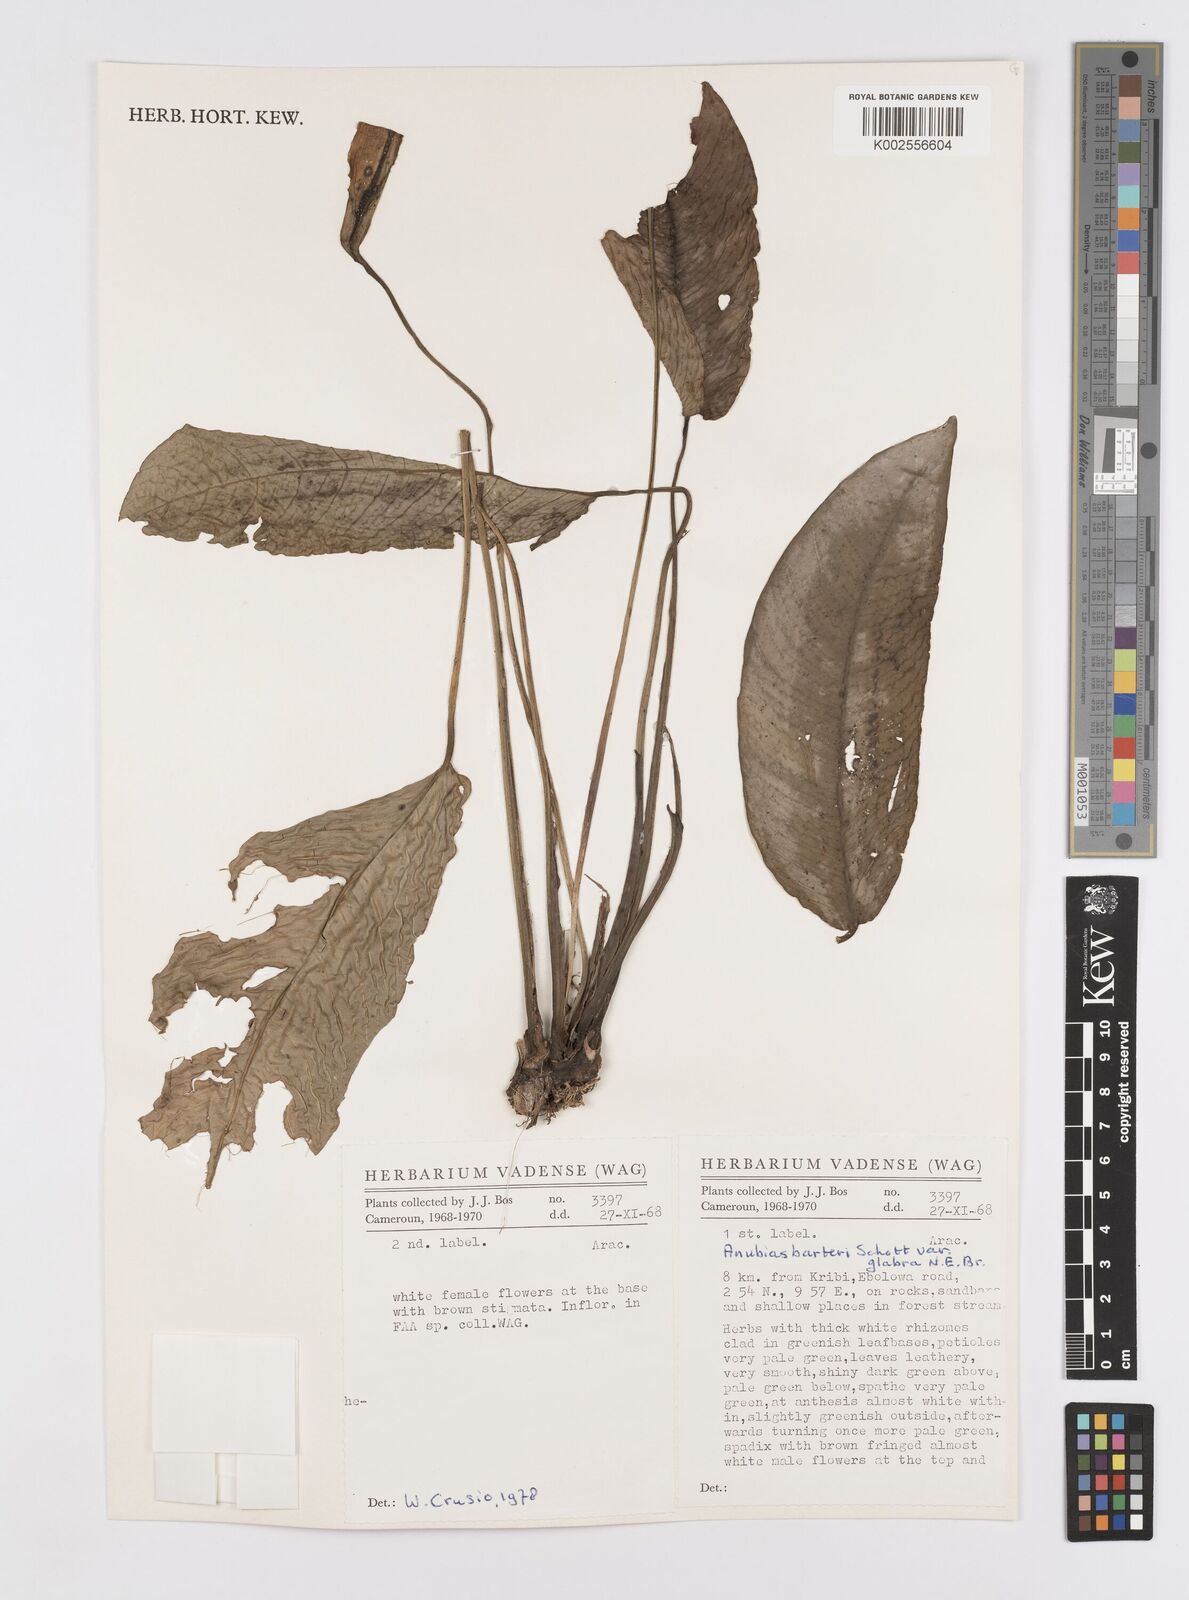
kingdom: Plantae
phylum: Tracheophyta
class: Liliopsida
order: Alismatales
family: Araceae
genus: Anubias
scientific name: Anubias barteri
